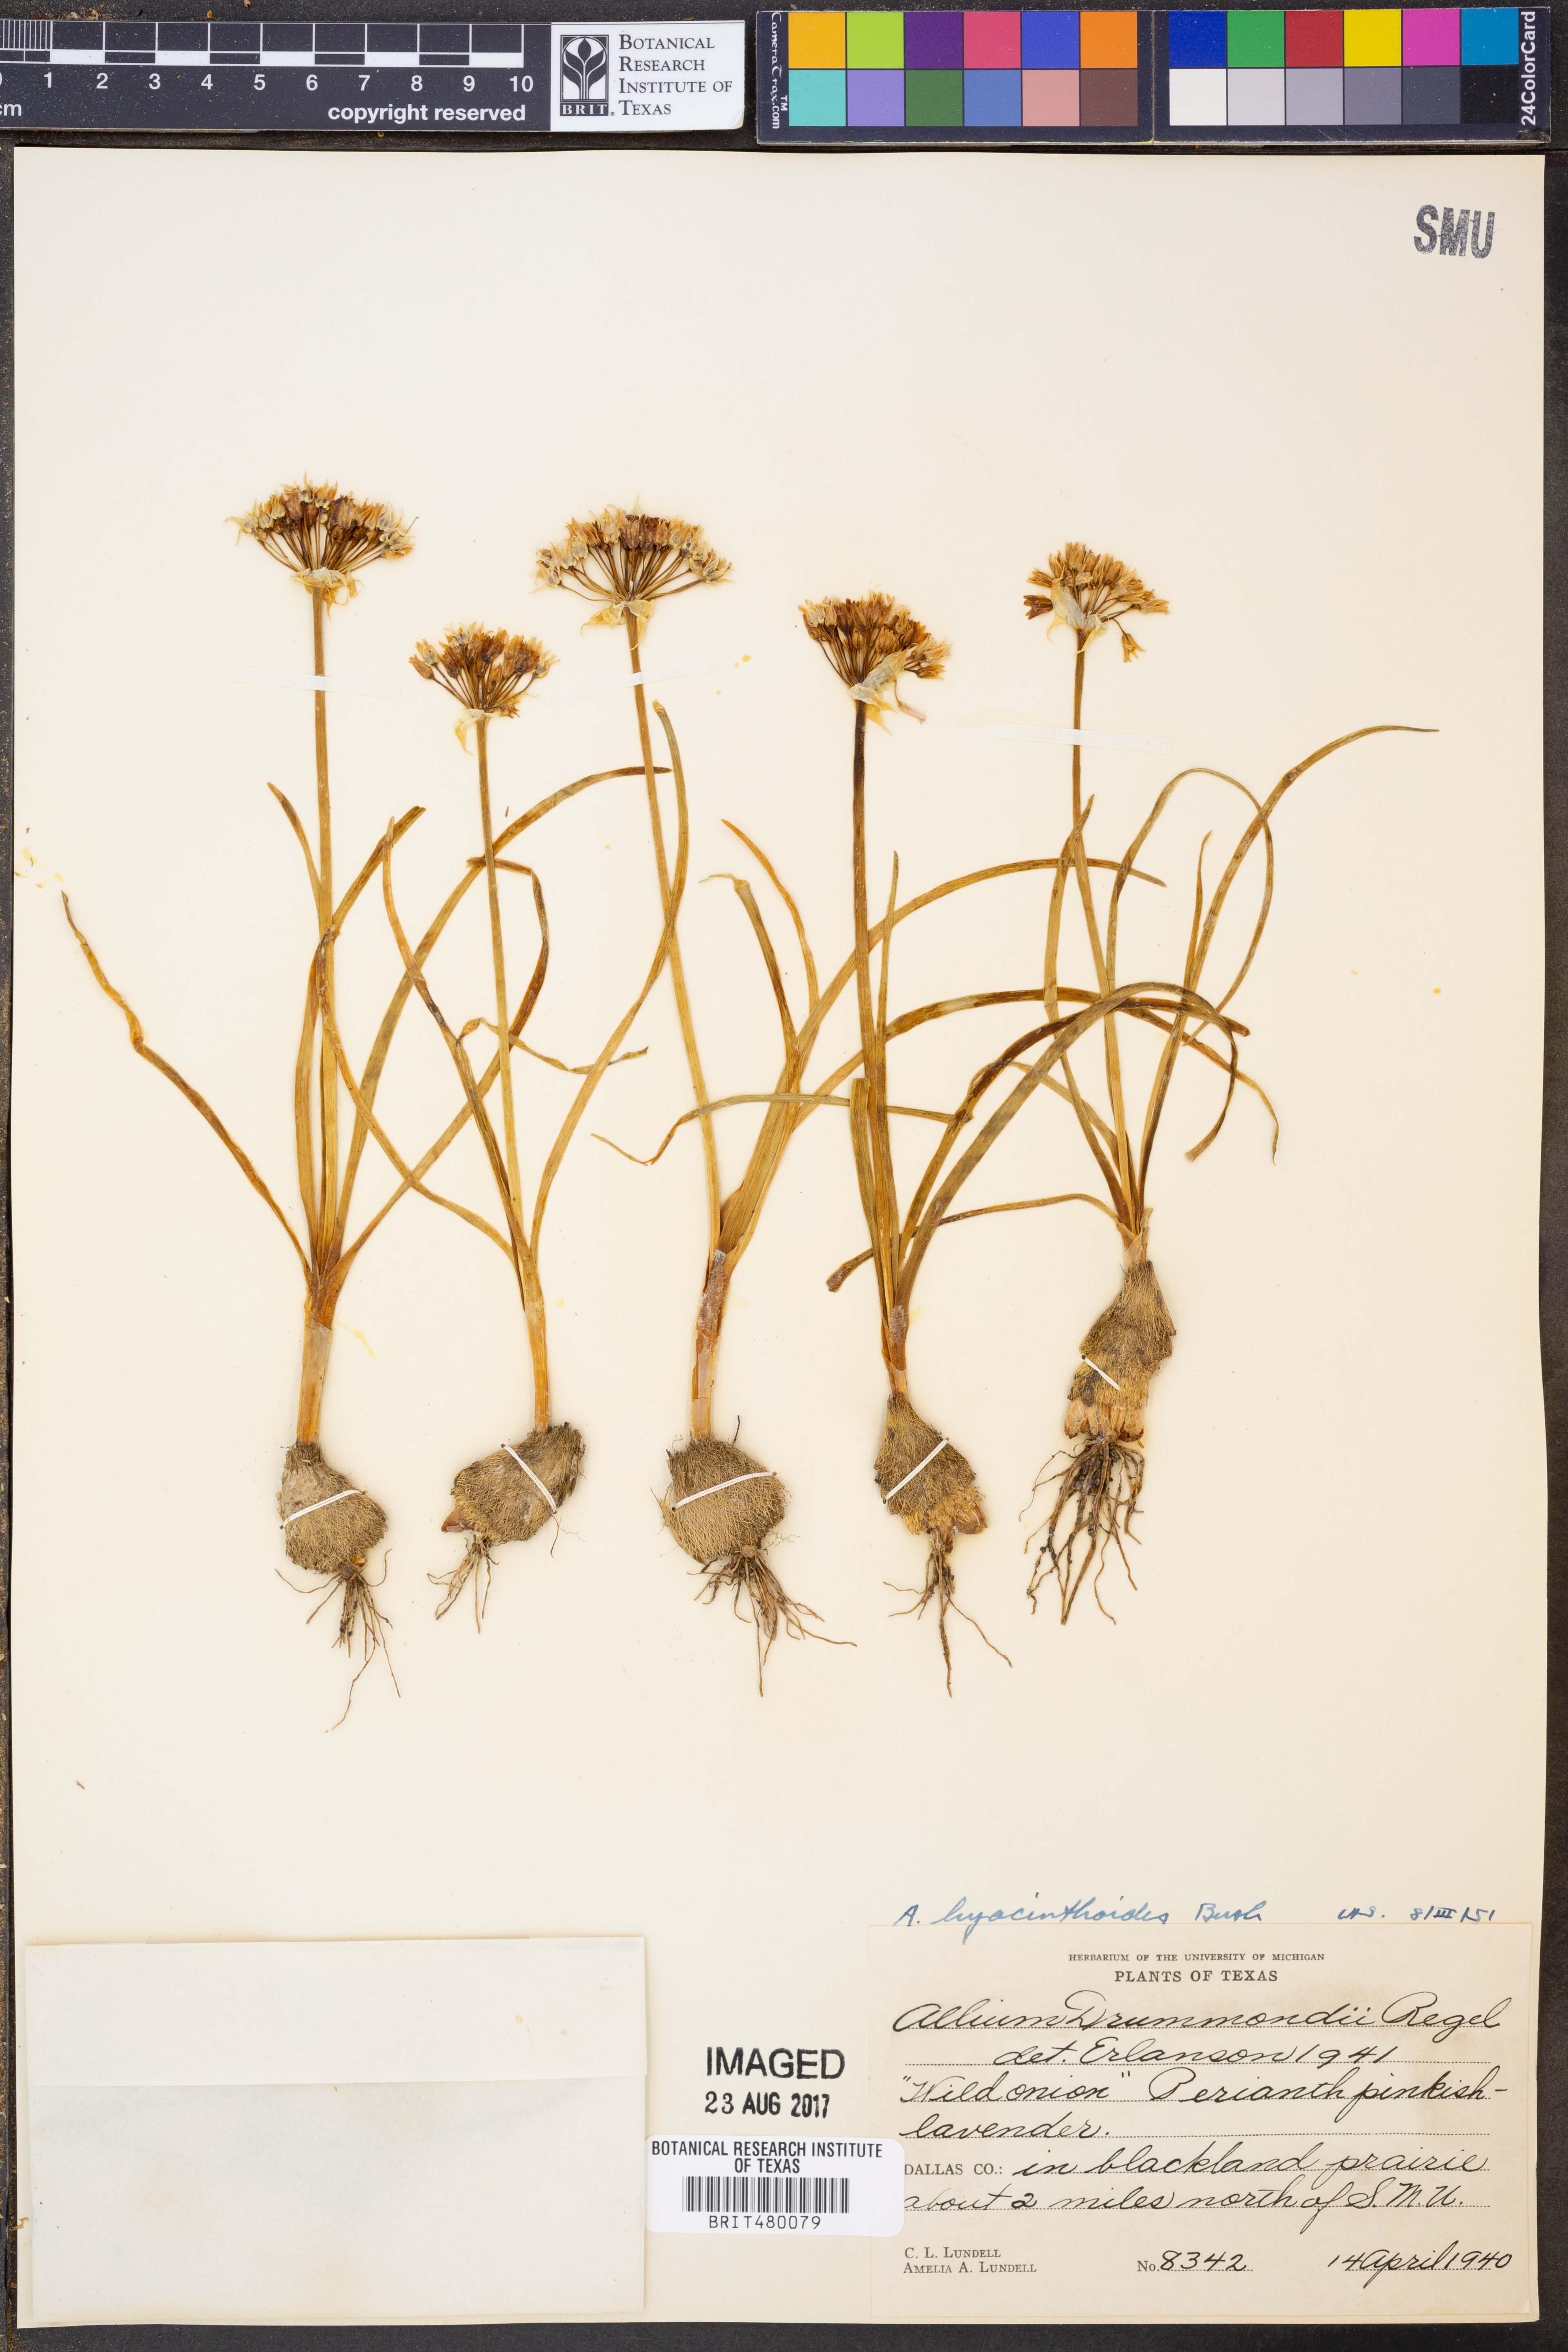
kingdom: Plantae
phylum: Tracheophyta
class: Liliopsida
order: Asparagales
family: Amaryllidaceae
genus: Allium
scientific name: Allium canadense
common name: Meadow garlic
